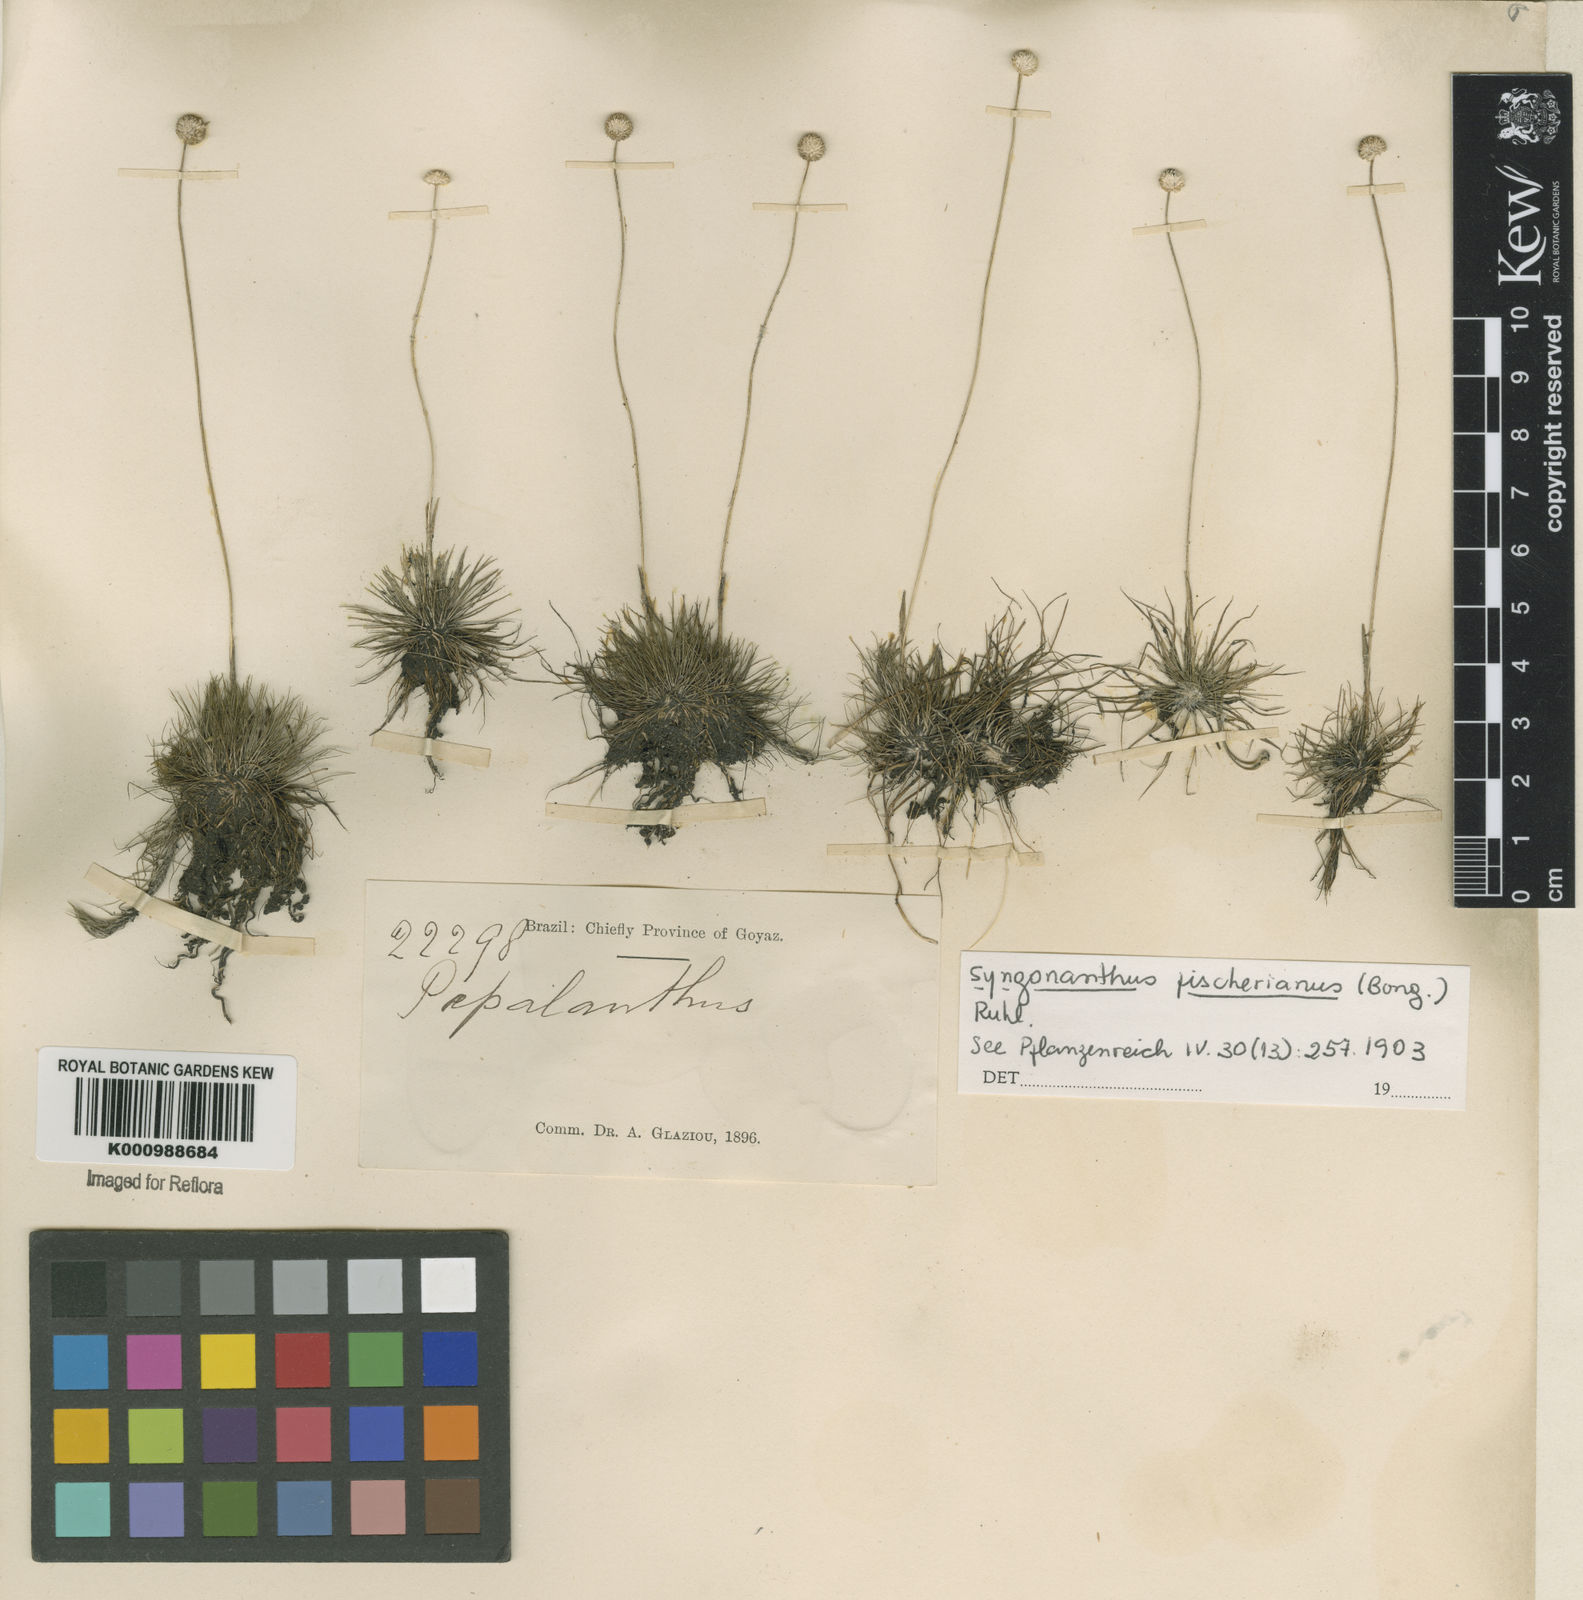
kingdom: Plantae
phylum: Tracheophyta
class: Liliopsida
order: Poales
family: Eriocaulaceae
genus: Syngonanthus
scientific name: Syngonanthus fischerianus
